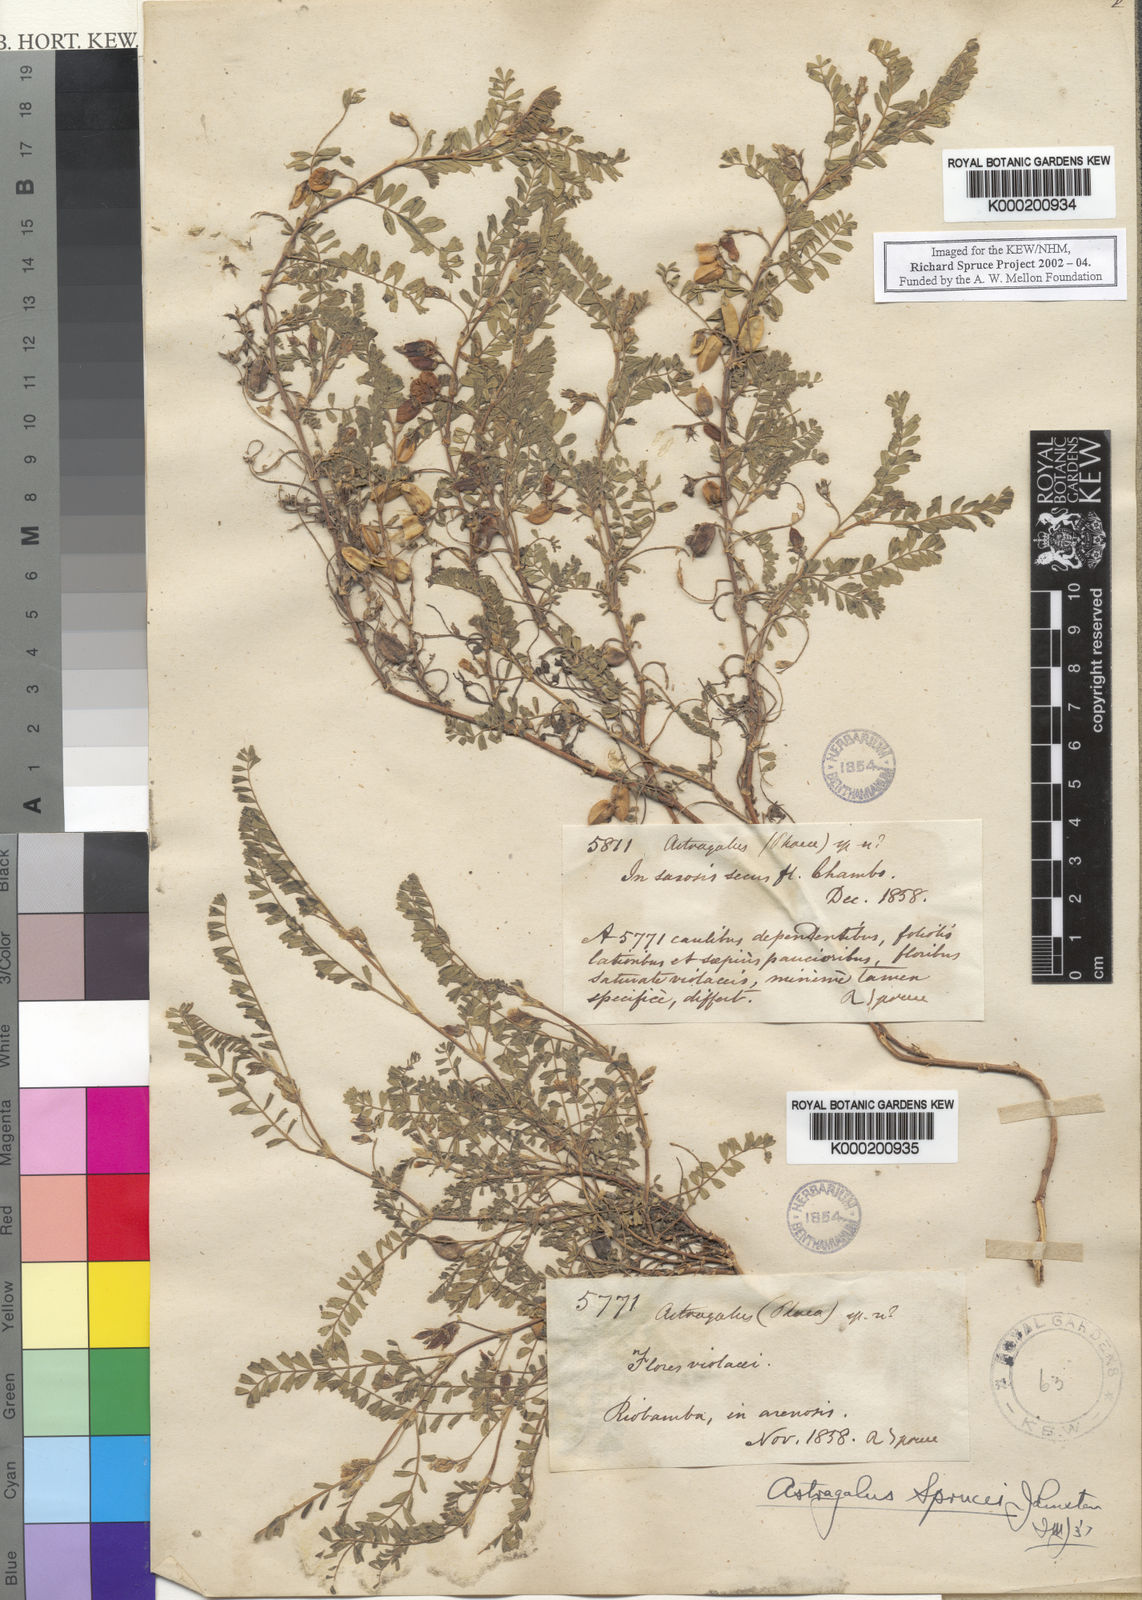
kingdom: Plantae
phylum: Tracheophyta
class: Magnoliopsida
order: Fabales
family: Fabaceae
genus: Astragalus
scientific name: Astragalus sprucei
